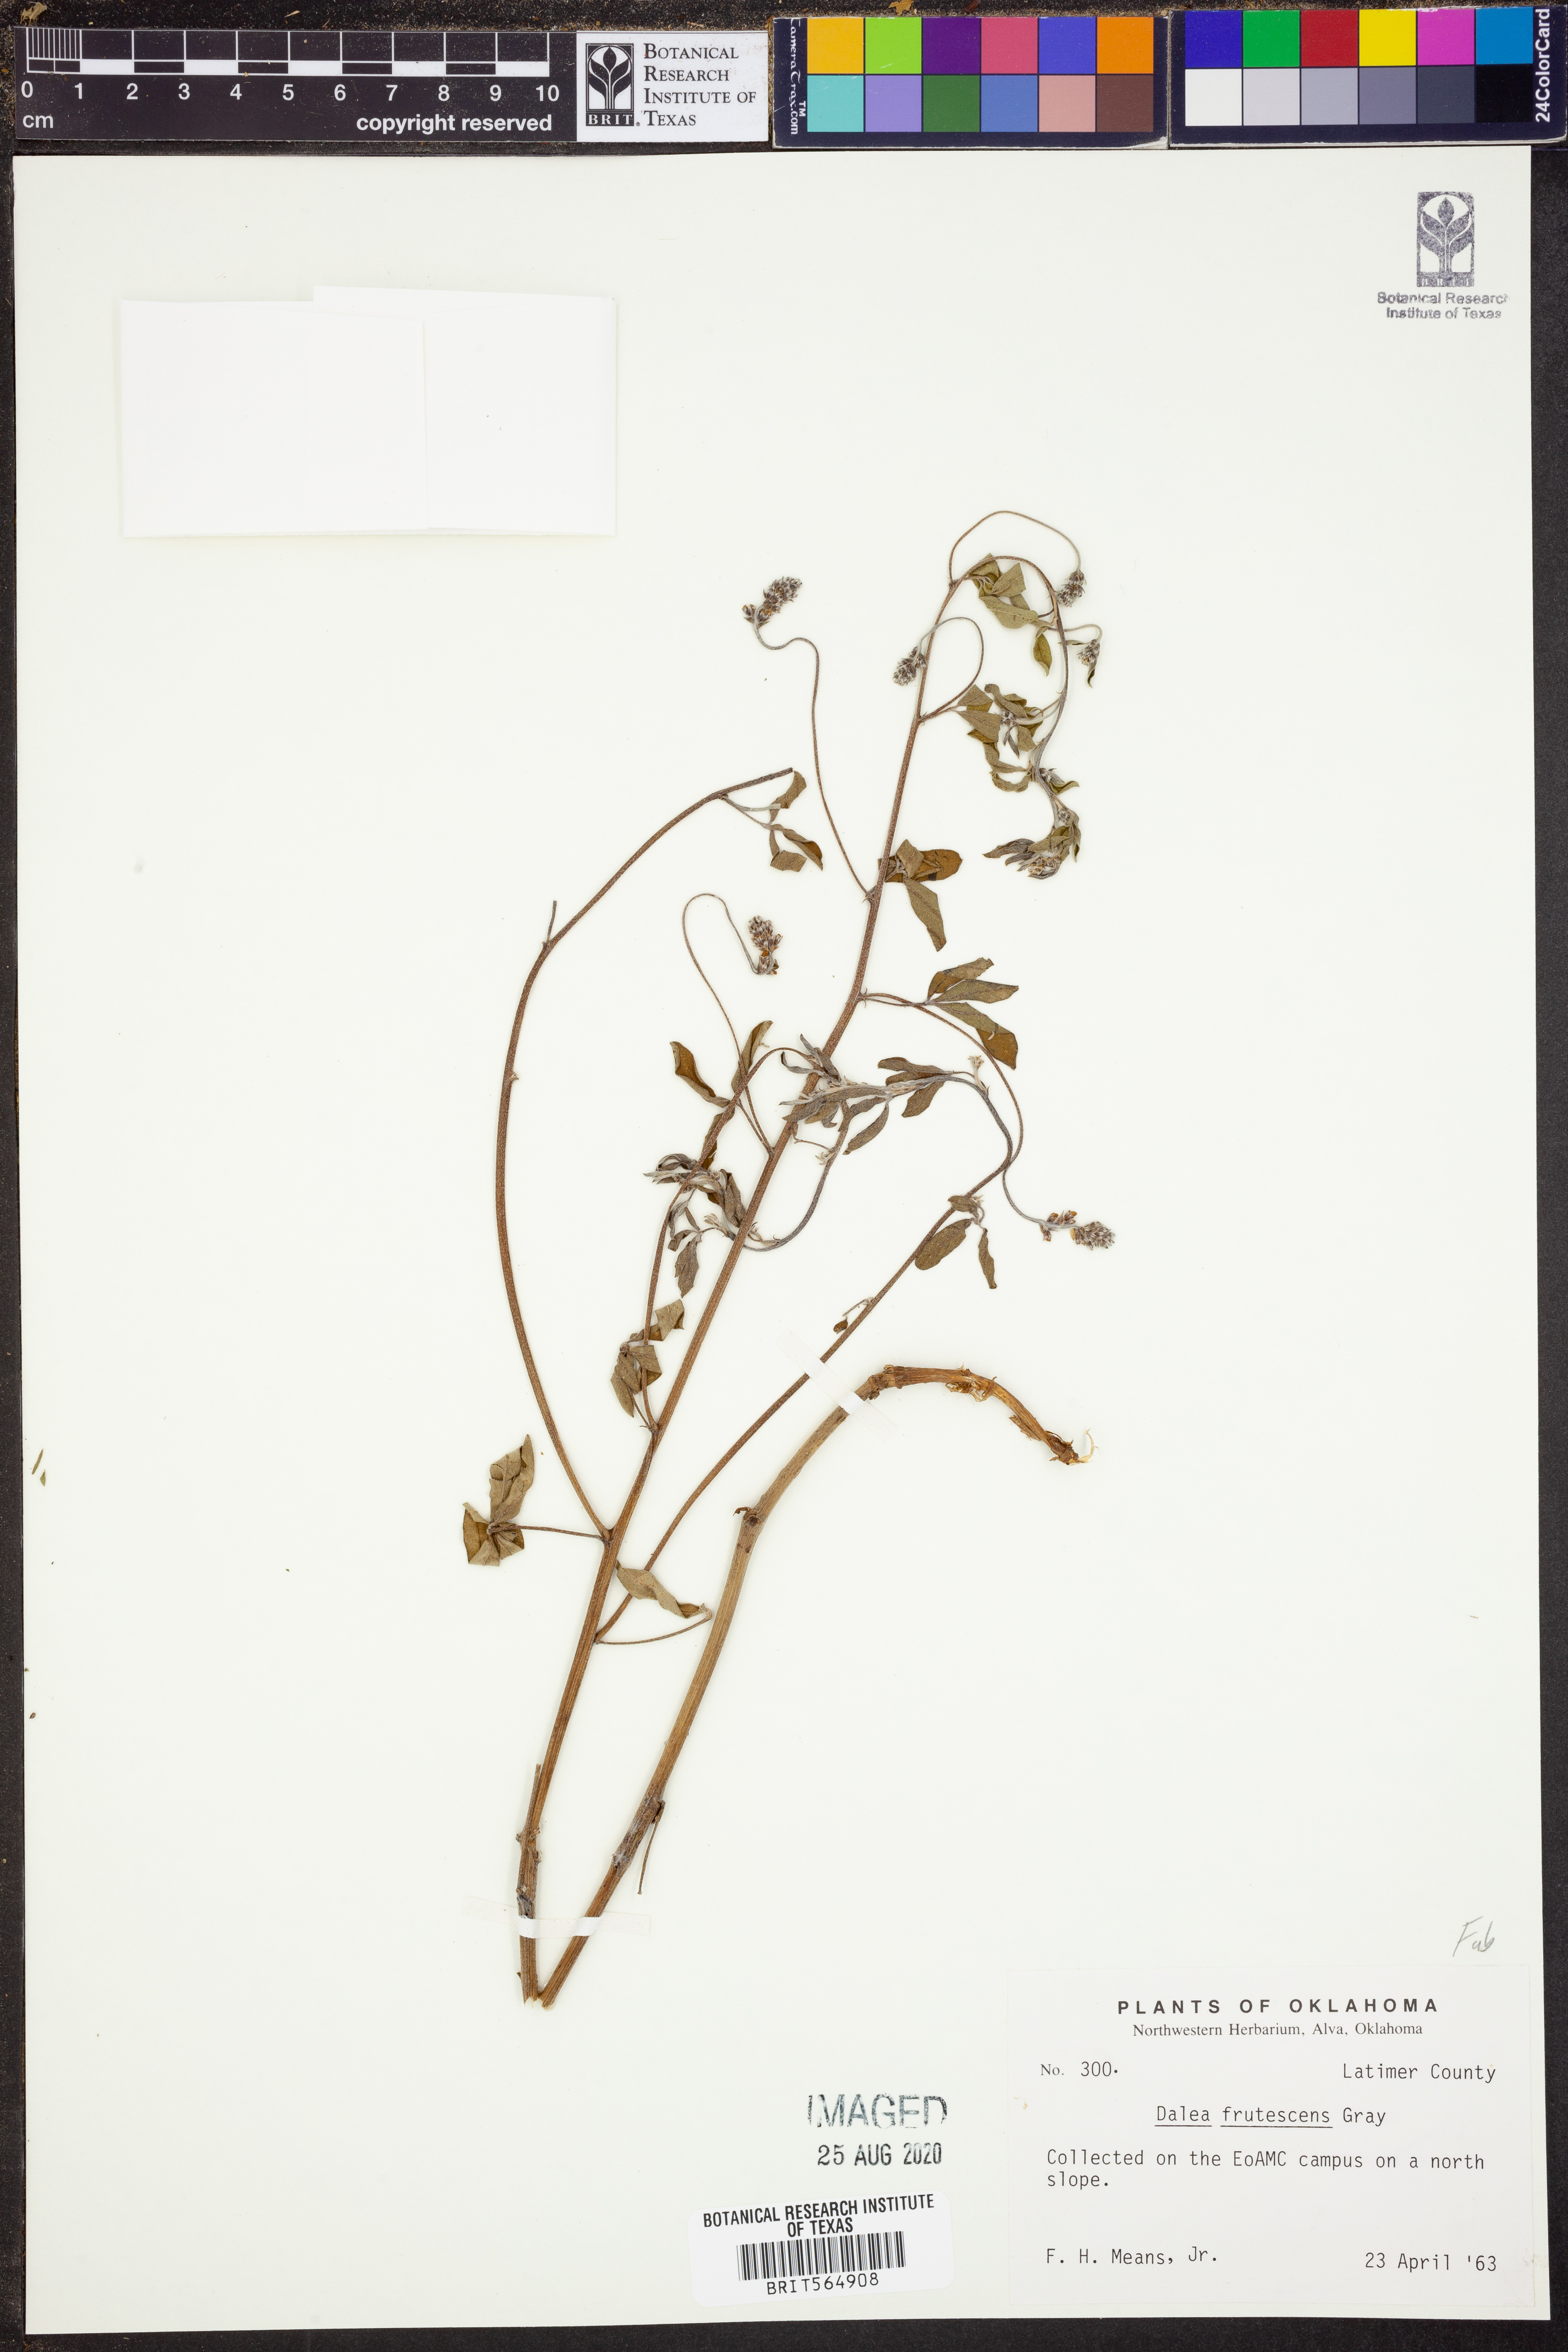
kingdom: Plantae
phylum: Tracheophyta
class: Magnoliopsida
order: Fabales
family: Fabaceae
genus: Dalea
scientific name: Dalea frutescens
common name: Black dalea
